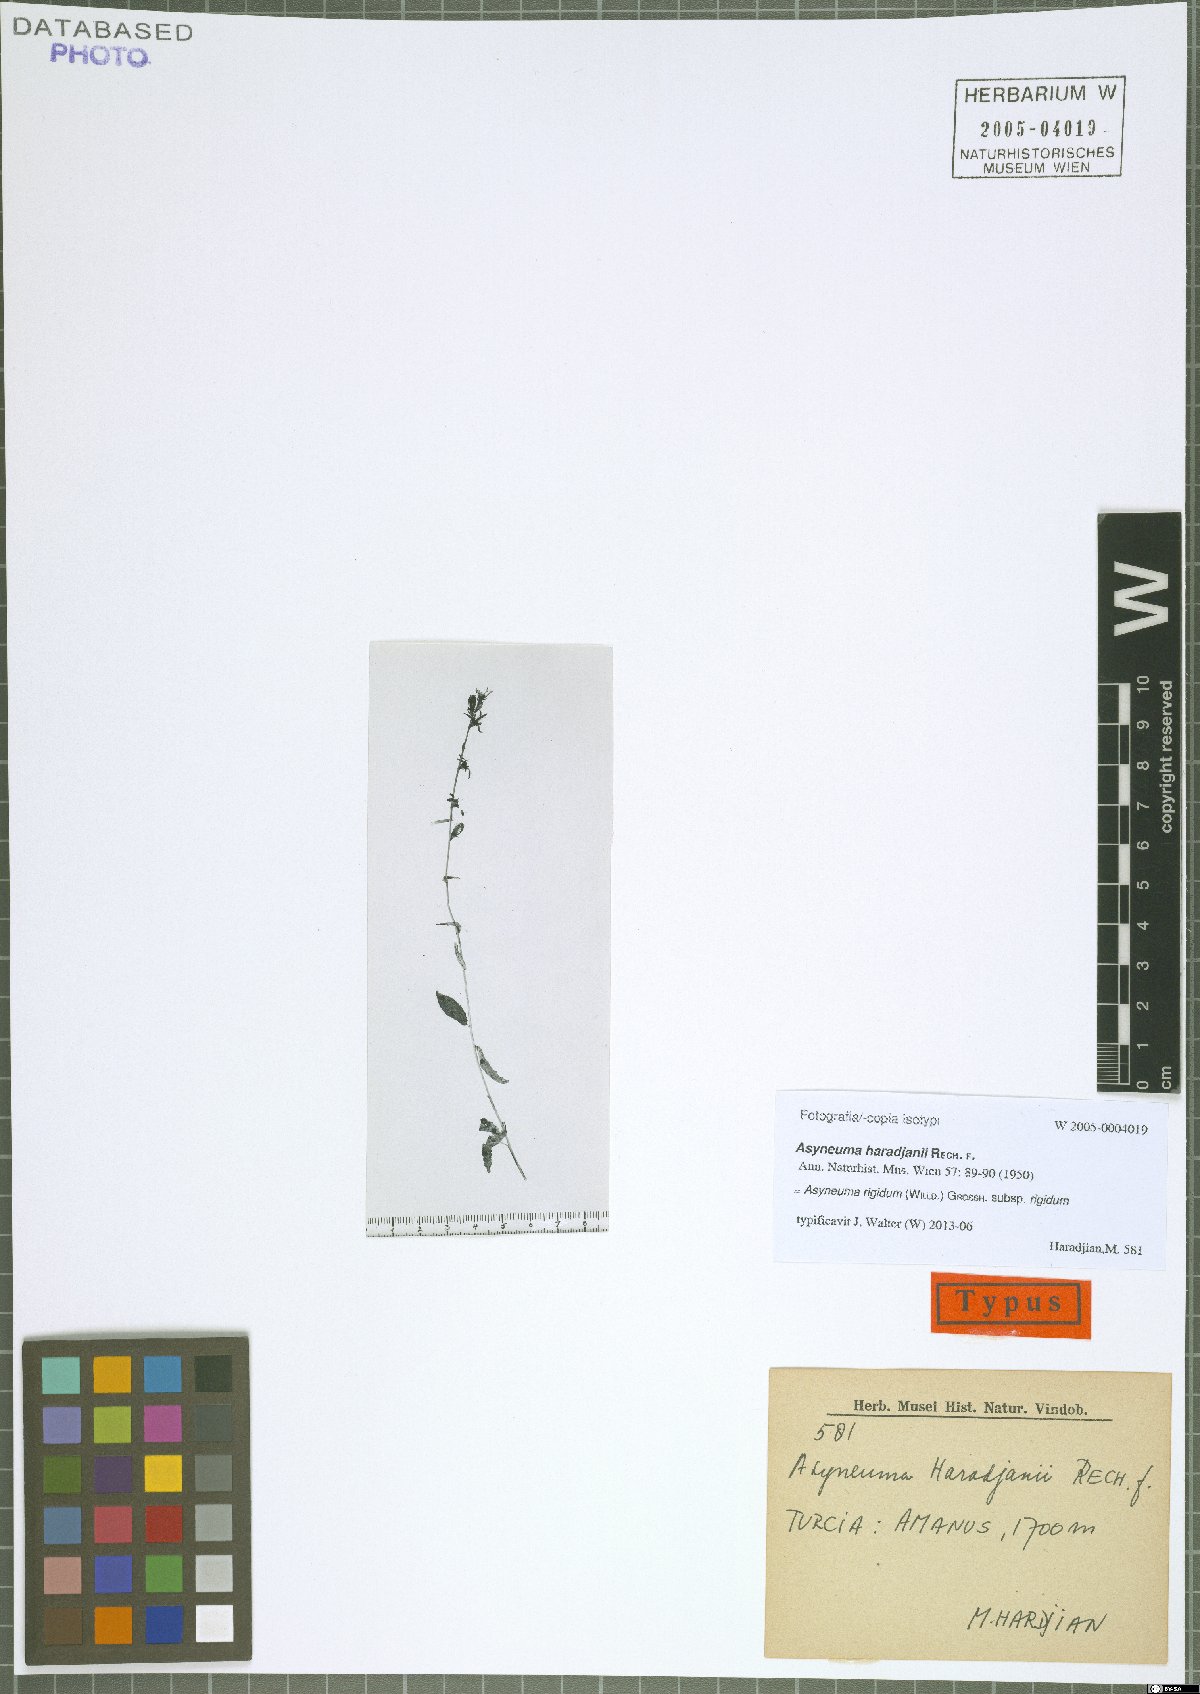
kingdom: Plantae
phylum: Tracheophyta
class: Magnoliopsida
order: Asterales
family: Campanulaceae
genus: Asyneuma
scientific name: Asyneuma rigidum
